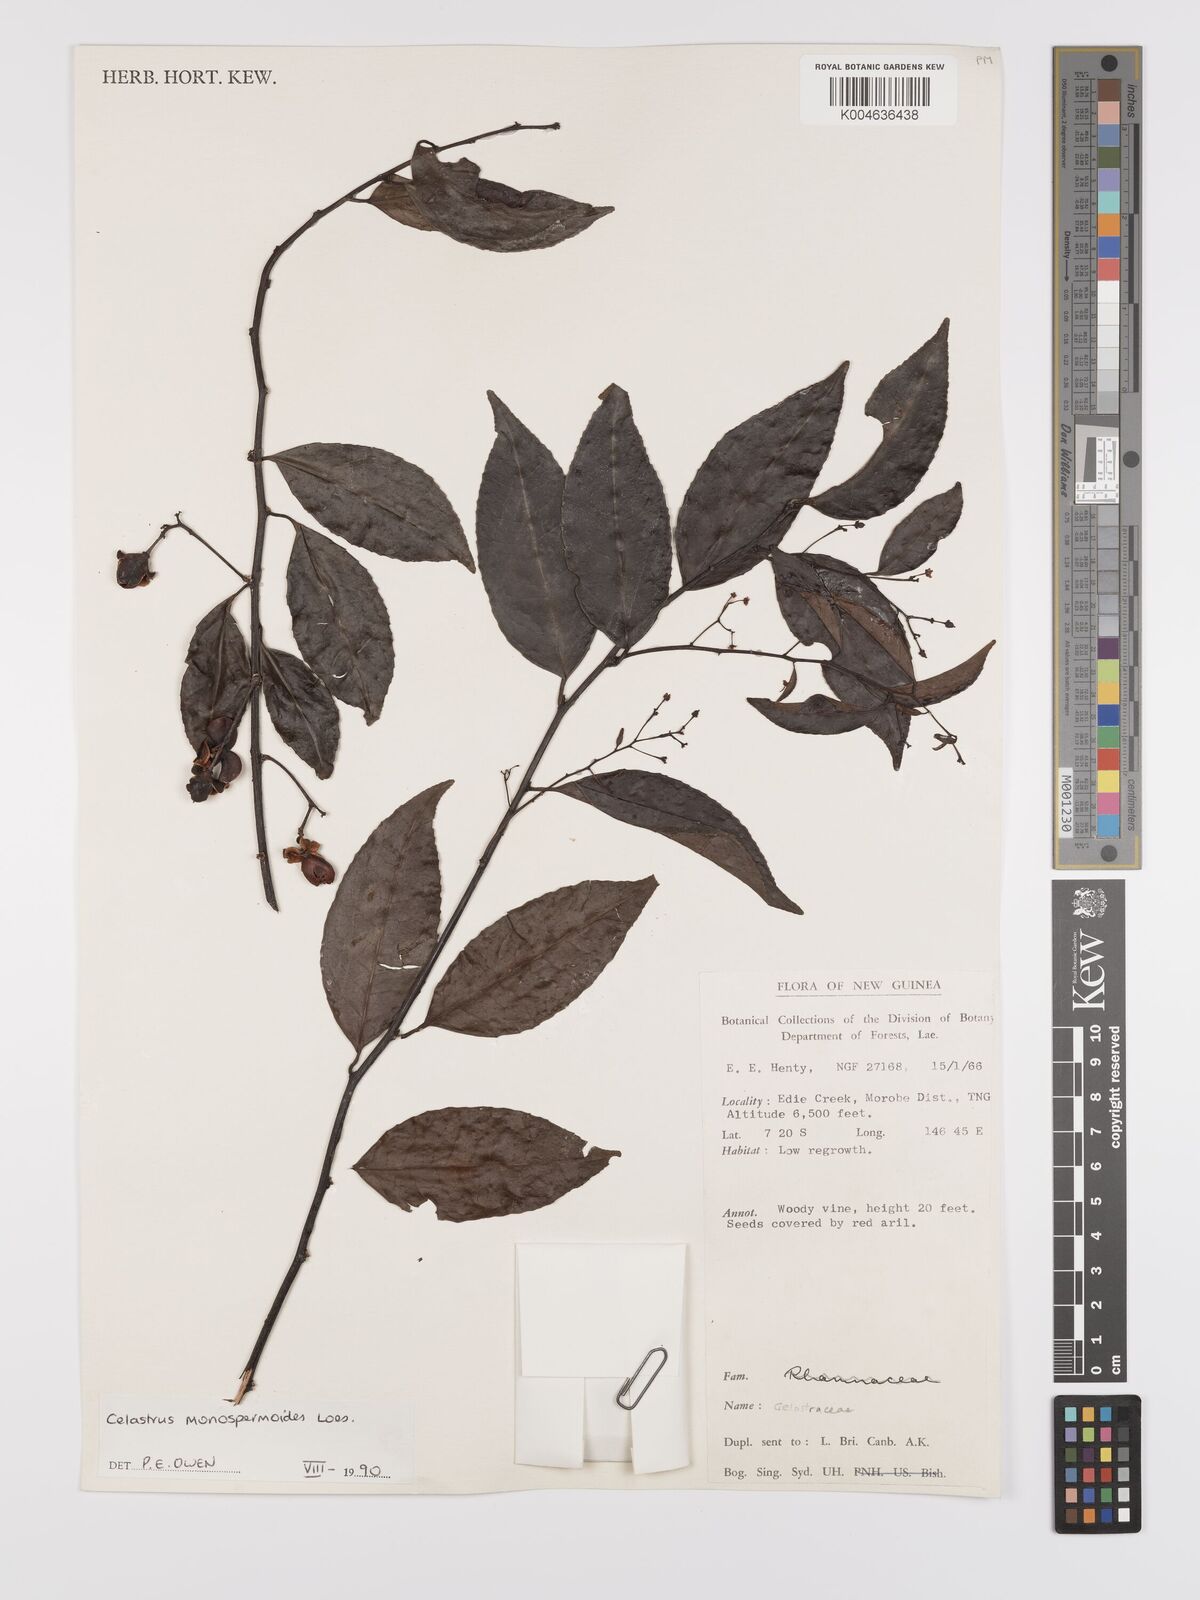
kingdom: Plantae
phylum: Tracheophyta
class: Magnoliopsida
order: Celastrales
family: Celastraceae
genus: Celastrus
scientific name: Celastrus monospermoides
